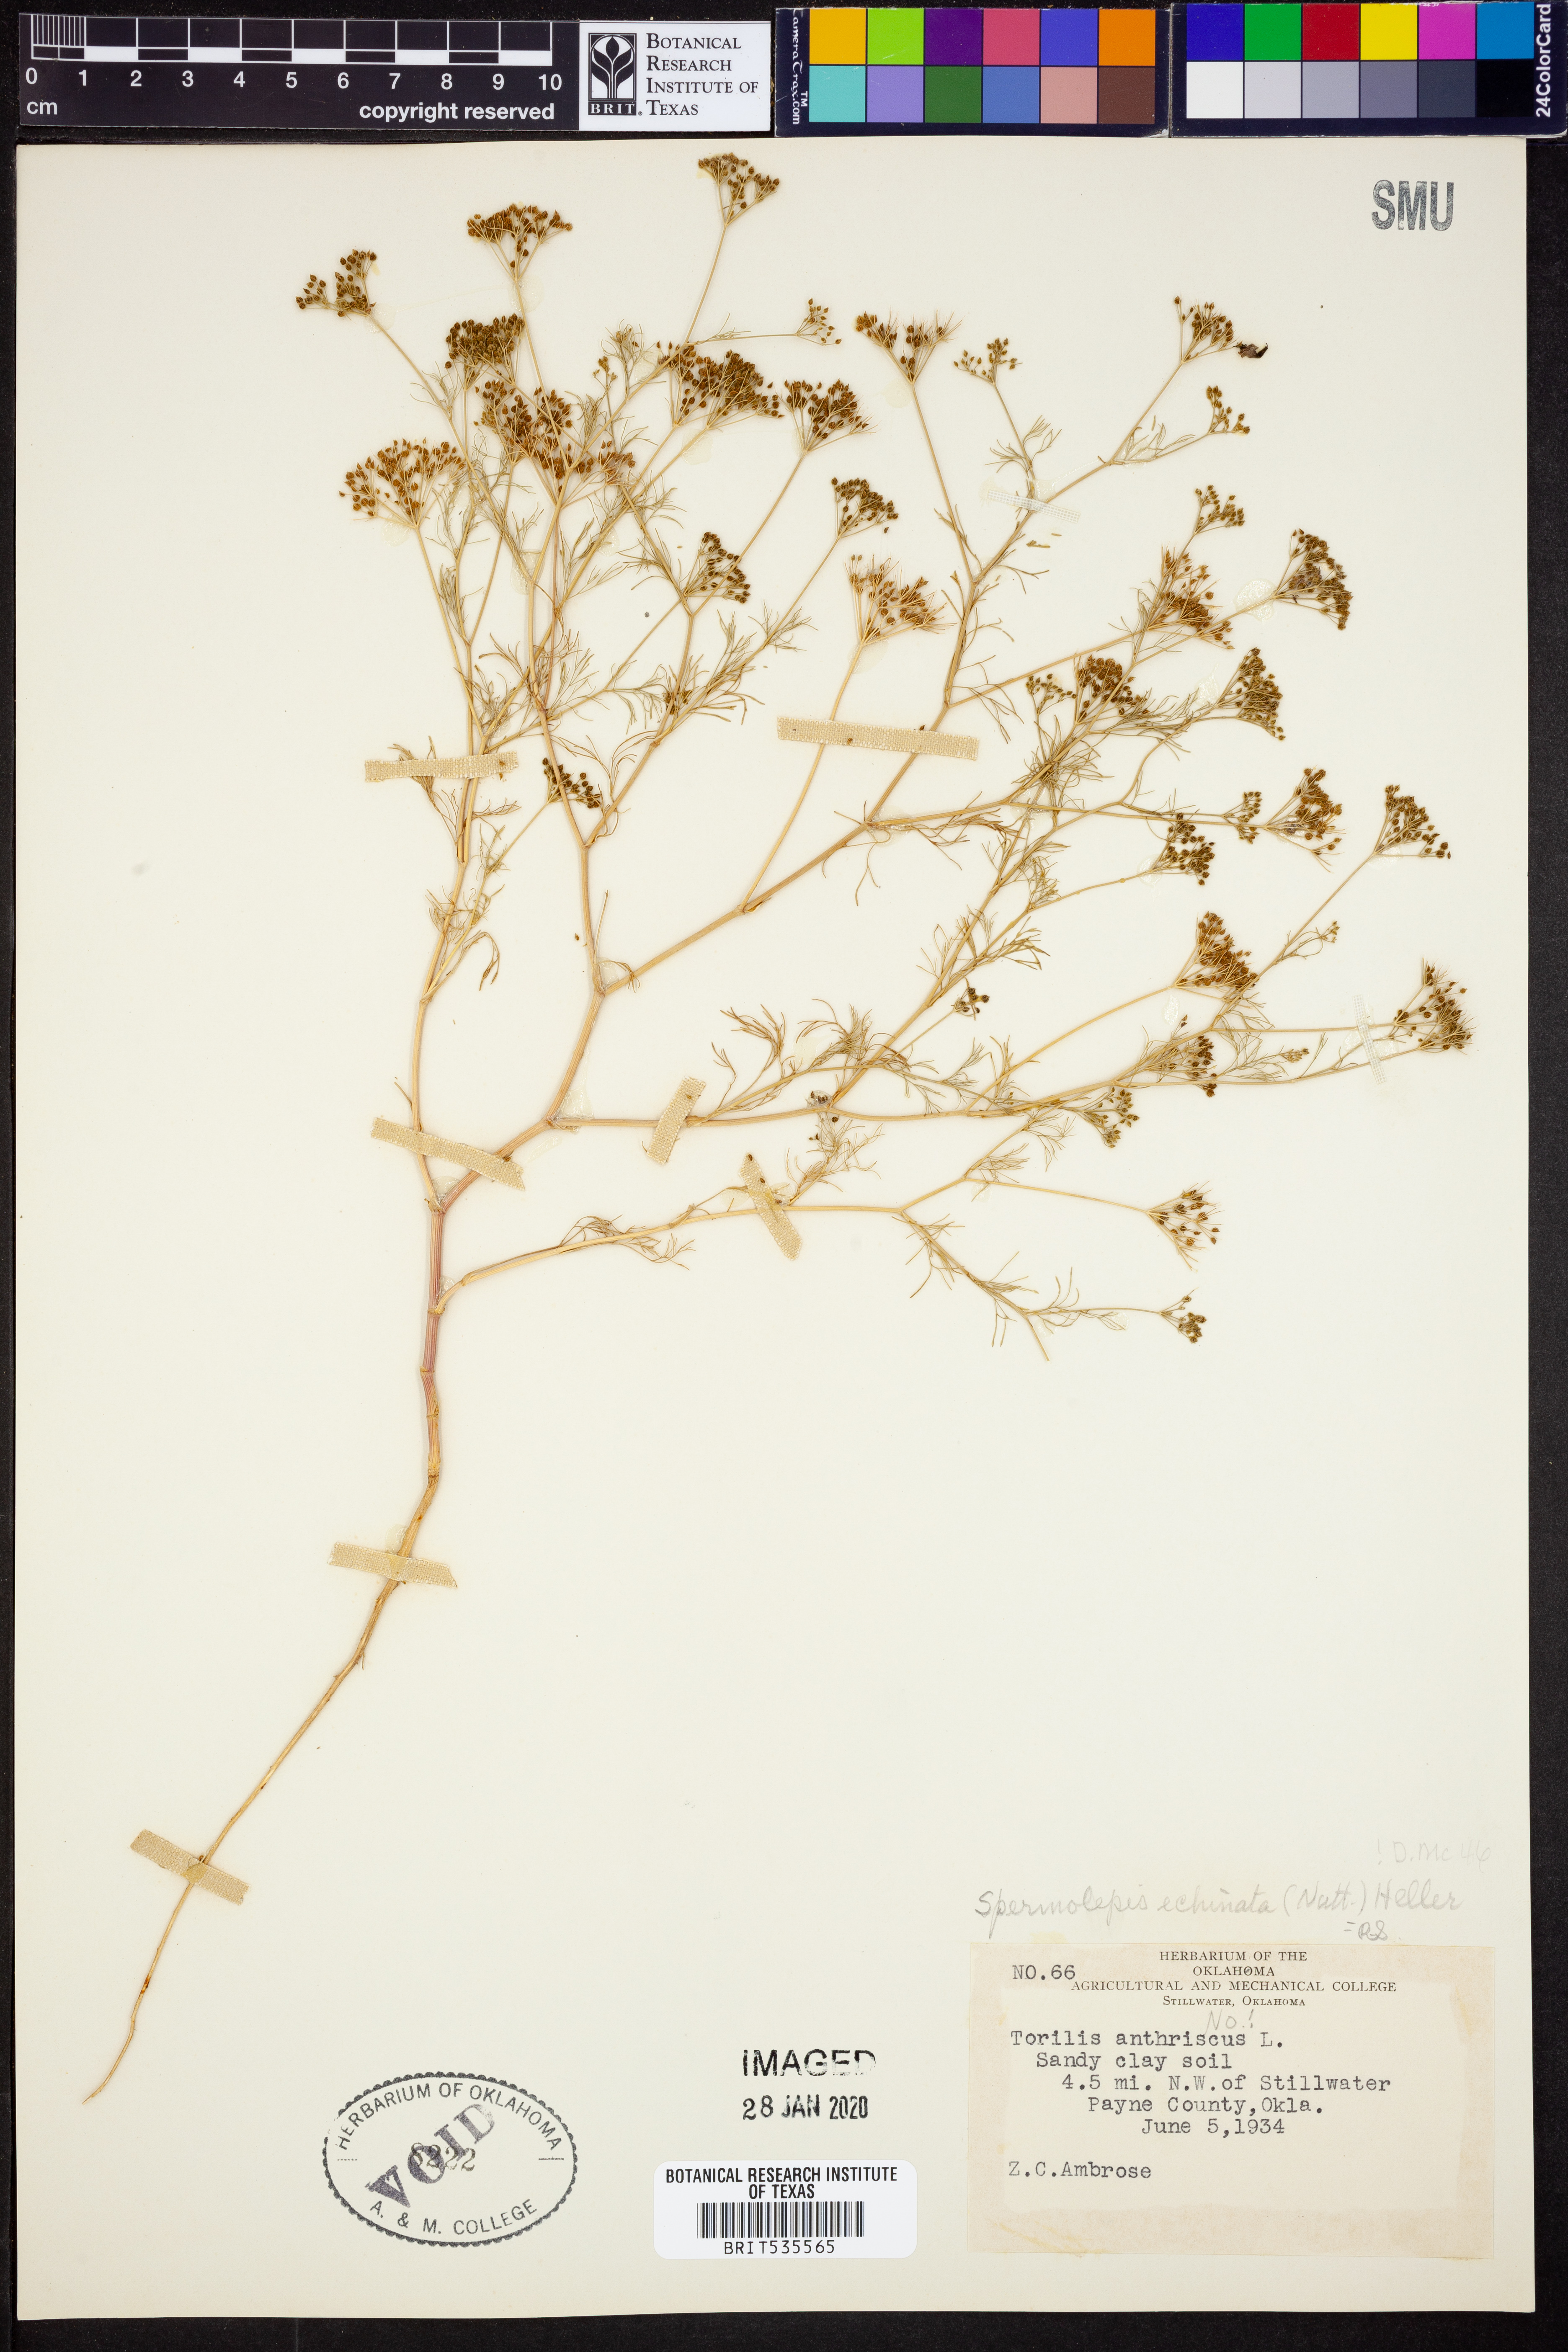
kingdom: Plantae
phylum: Tracheophyta
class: Magnoliopsida
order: Apiales
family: Apiaceae
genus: Spermolepis
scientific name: Spermolepis echinata
